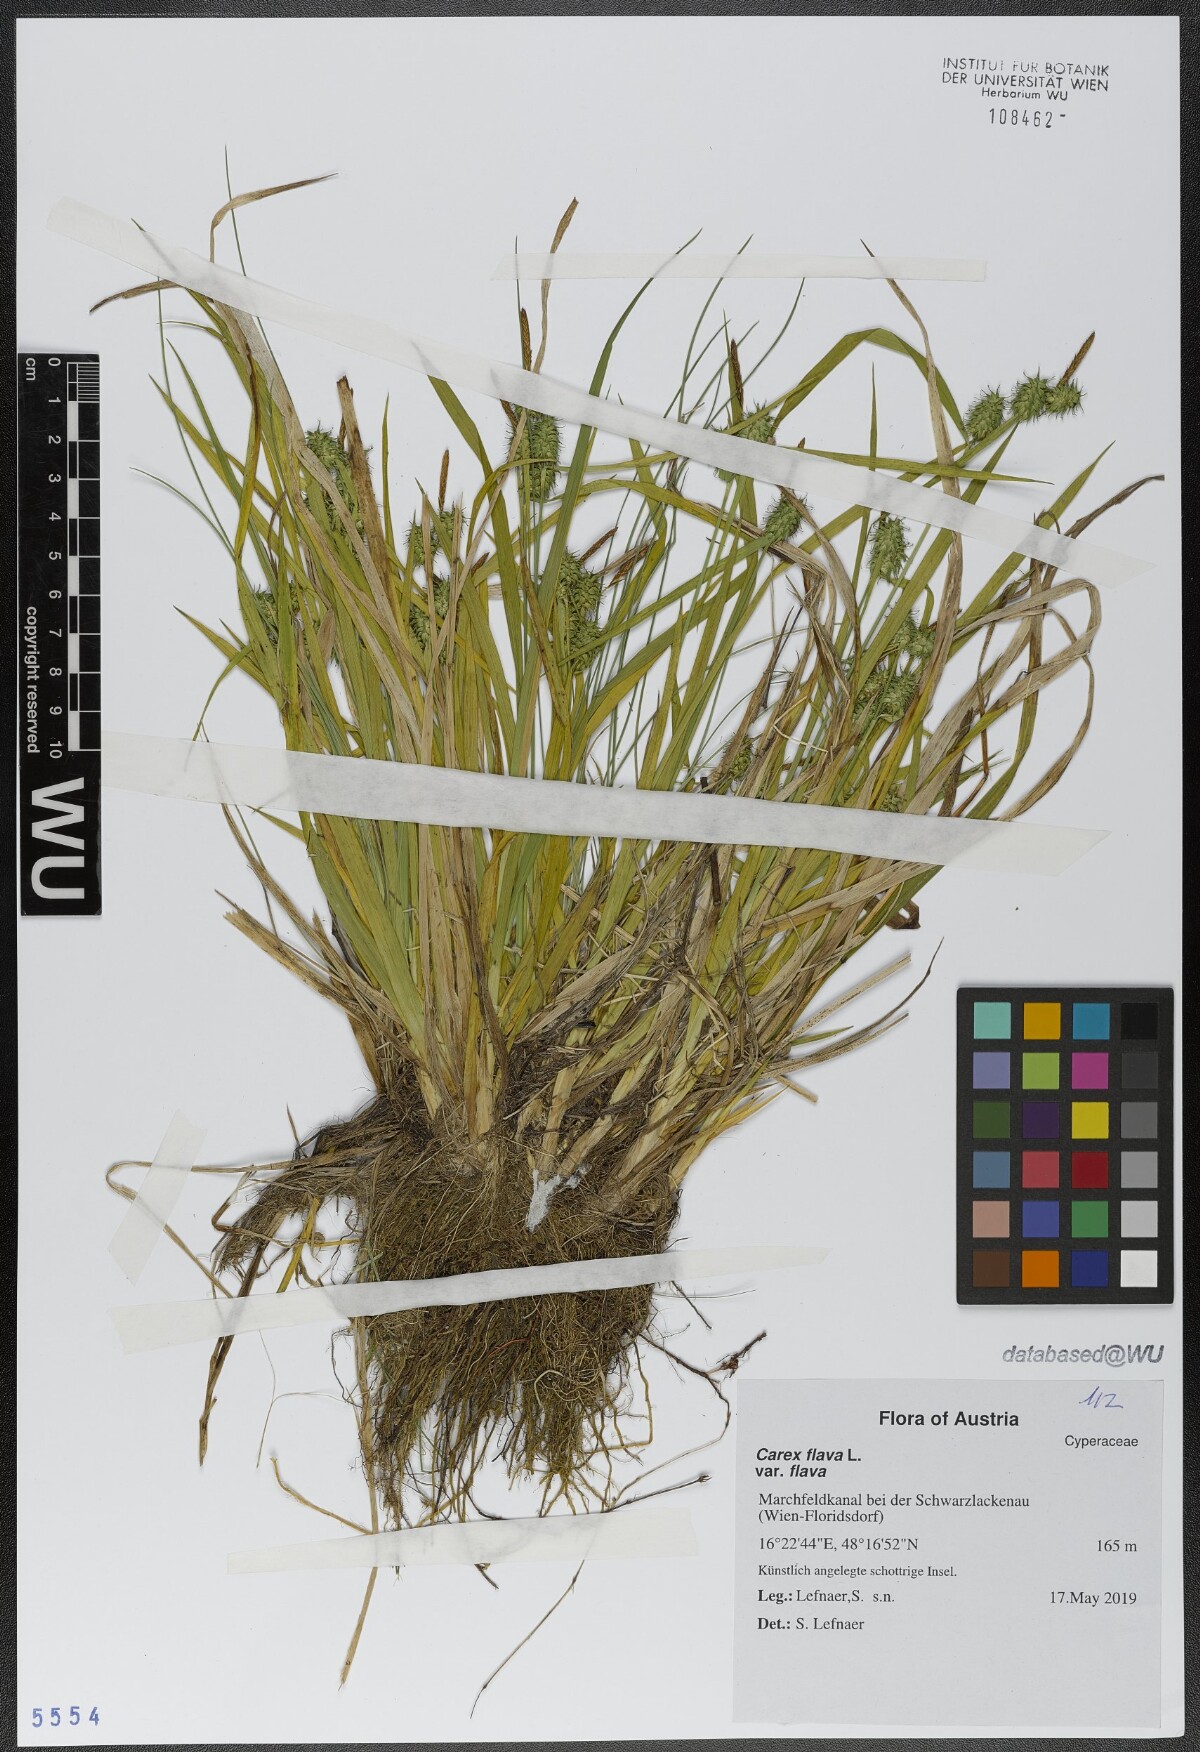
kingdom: Plantae
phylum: Tracheophyta
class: Liliopsida
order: Poales
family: Cyperaceae
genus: Carex
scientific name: Carex flava
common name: Large yellow-sedge
